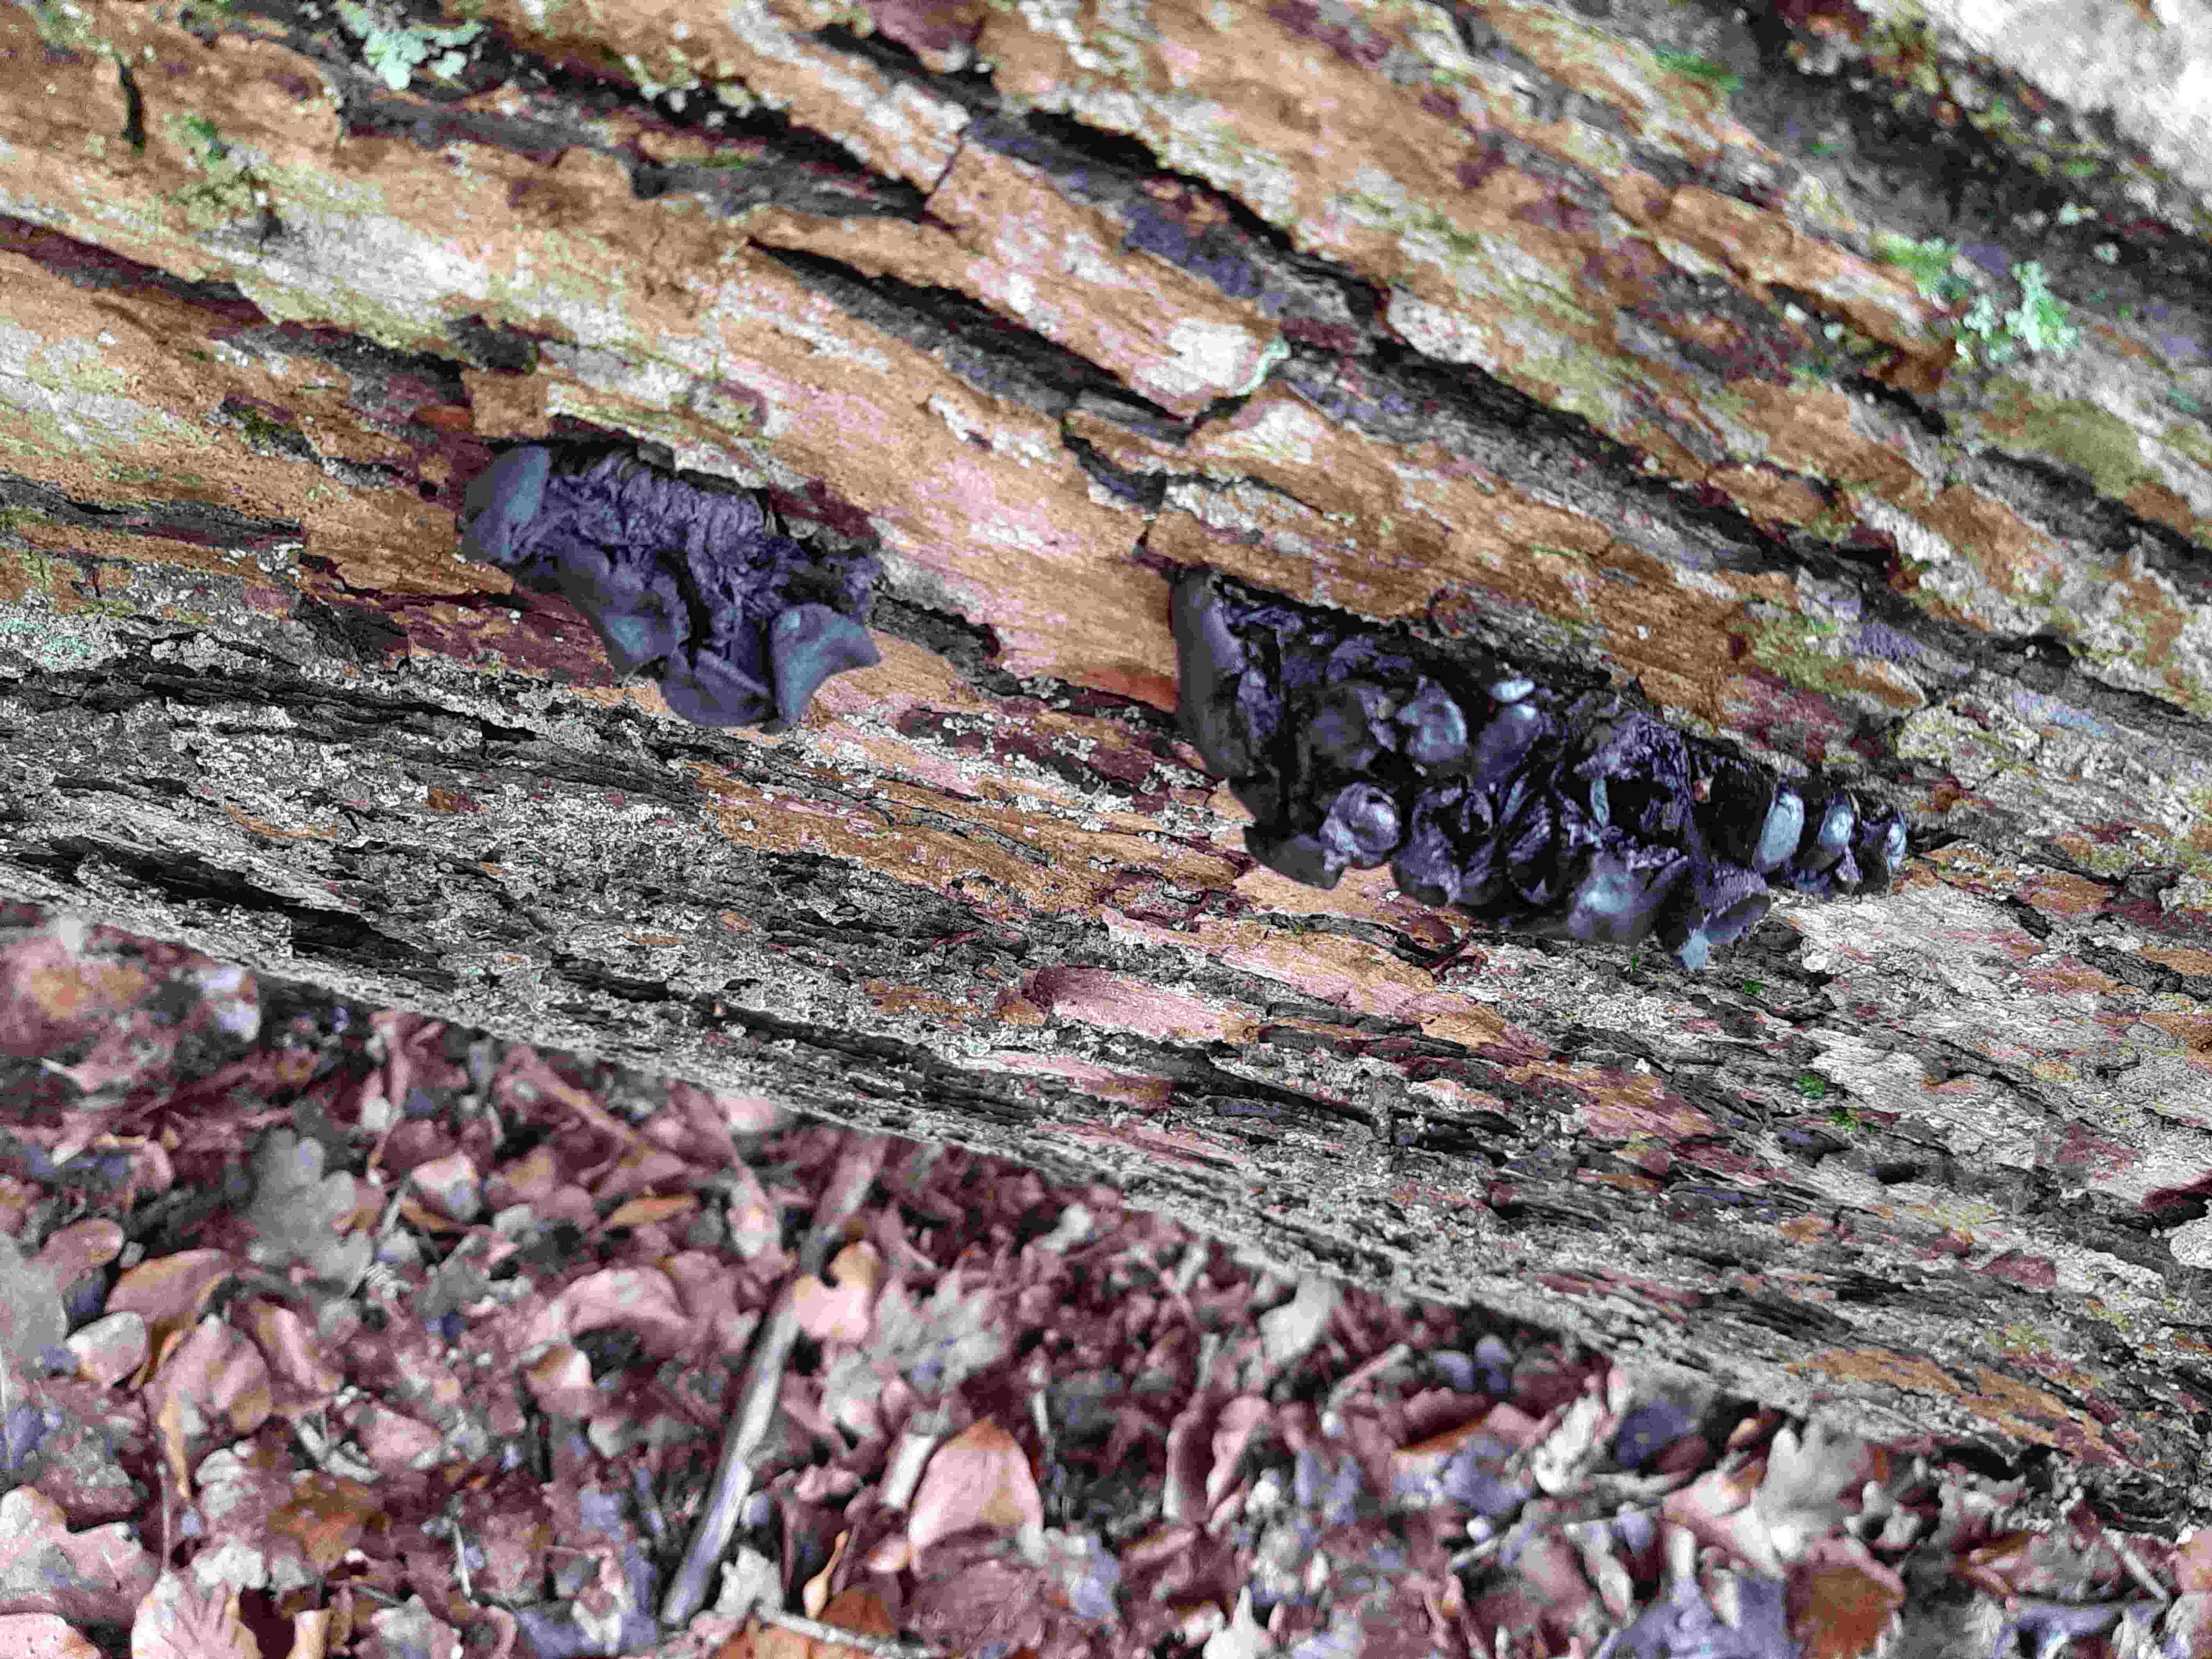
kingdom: Fungi
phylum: Basidiomycota
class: Agaricomycetes
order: Auriculariales
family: Auriculariaceae
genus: Exidia
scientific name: Exidia glandulosa
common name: ege-bævretop
